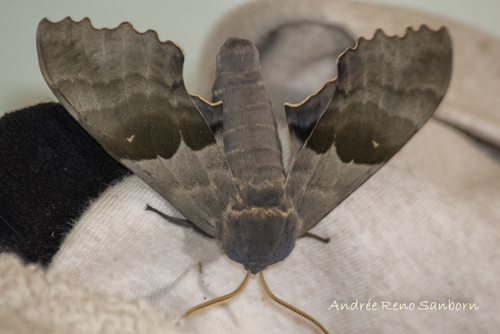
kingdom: Animalia
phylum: Arthropoda
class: Insecta
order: Lepidoptera
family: Sphingidae
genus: Pachysphinx
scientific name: Pachysphinx modesta
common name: Big poplar sphinx
